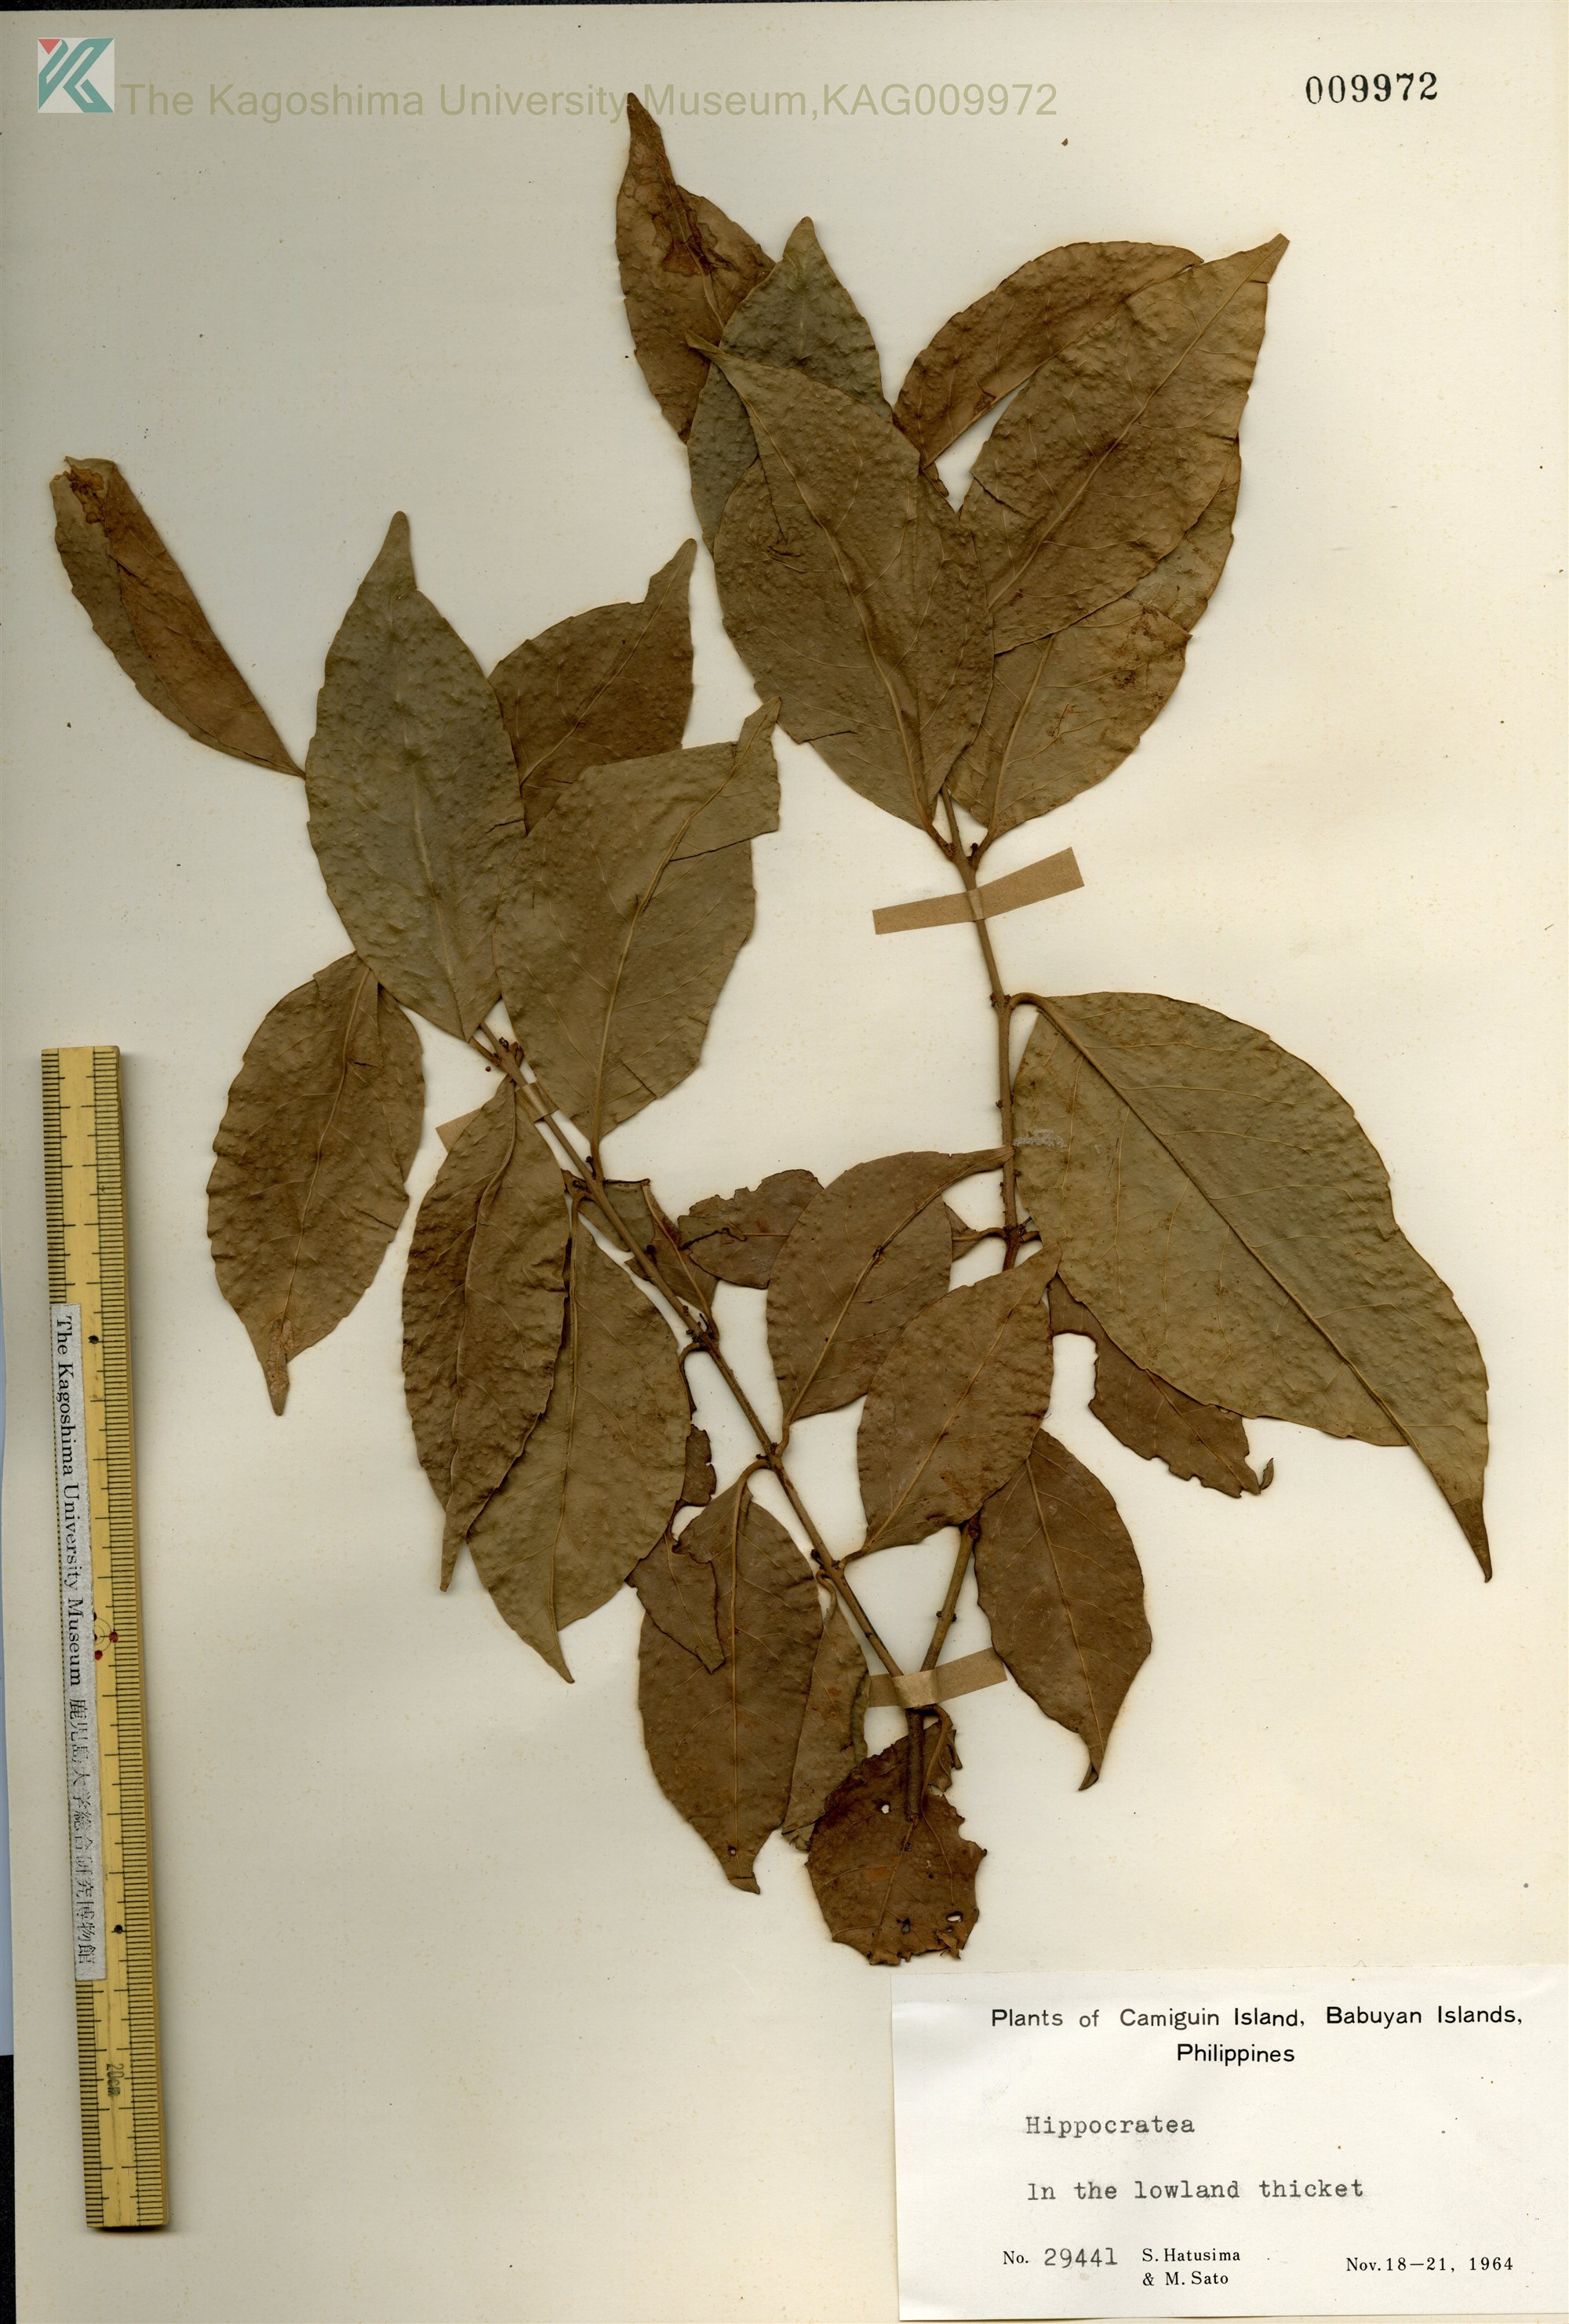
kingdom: Plantae
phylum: Tracheophyta
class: Magnoliopsida
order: Celastrales
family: Celastraceae
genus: Loeseneriella
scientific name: Loeseneriella obtusifolia
